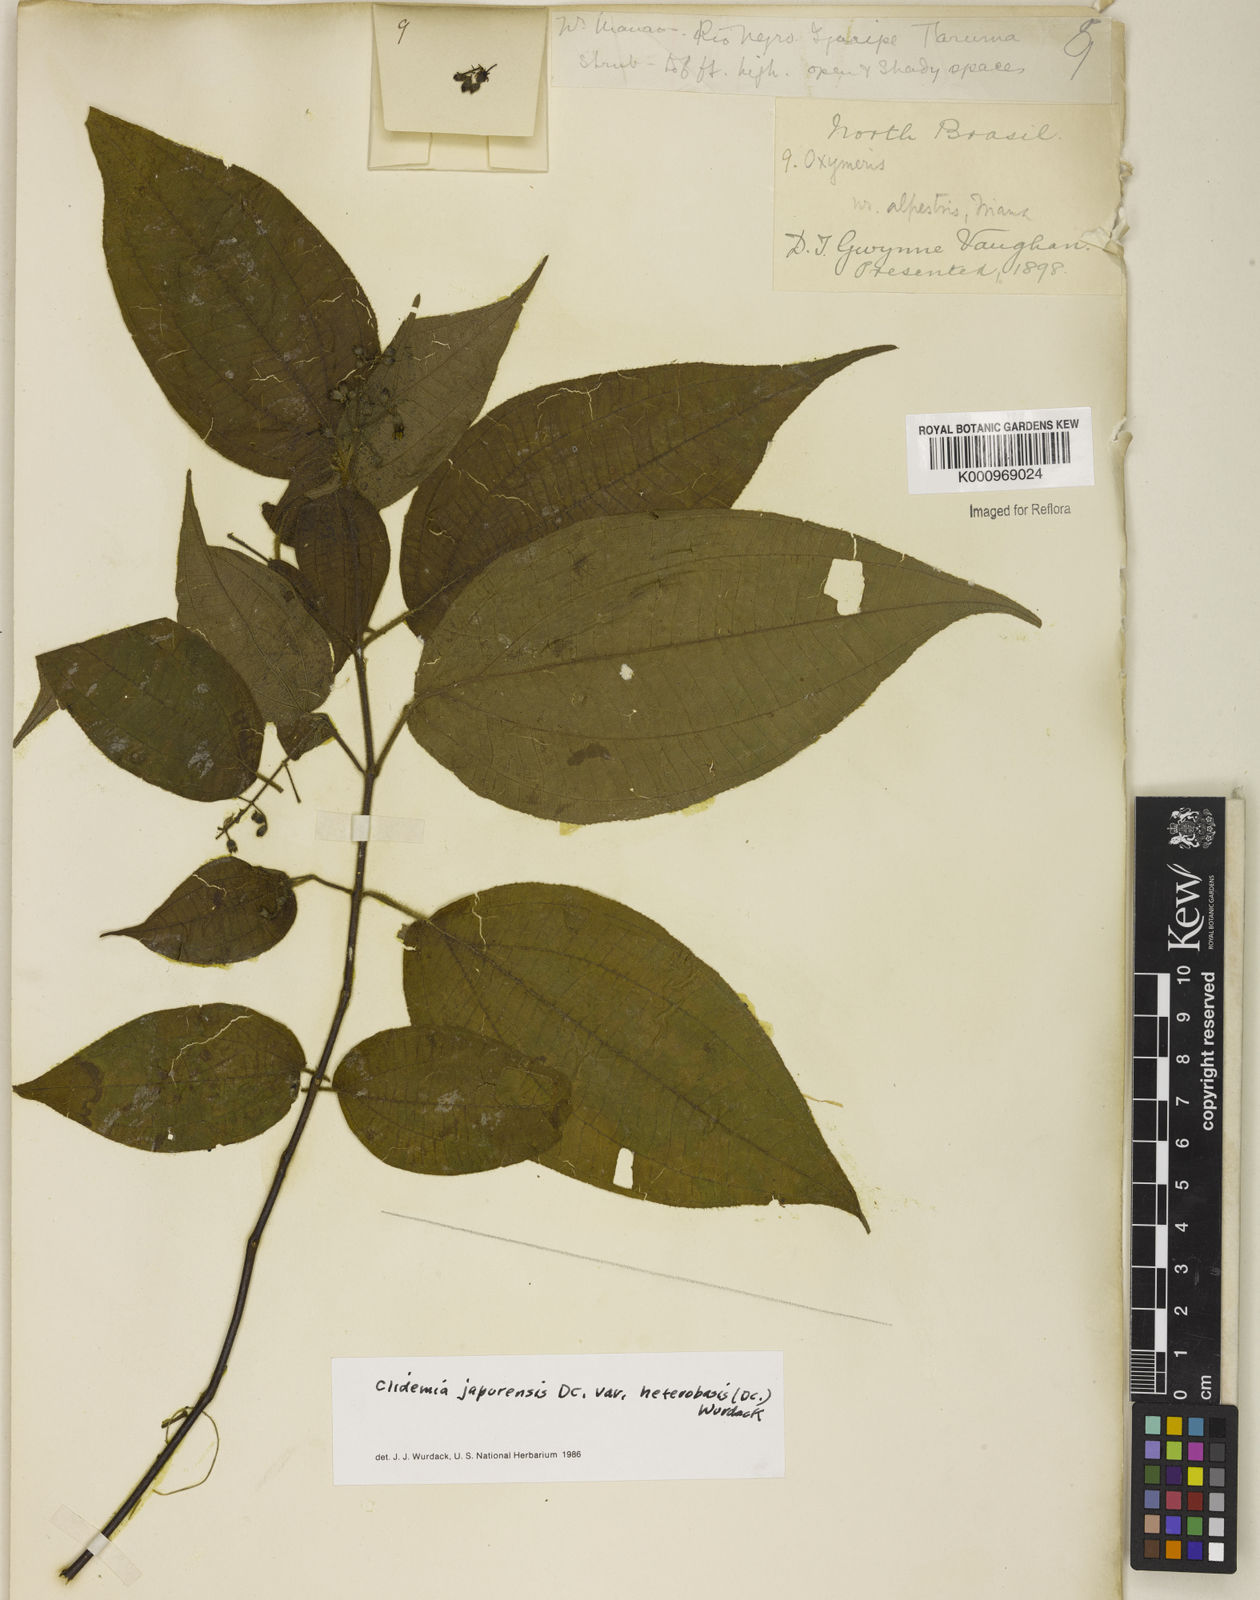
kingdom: Plantae
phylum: Tracheophyta
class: Magnoliopsida
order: Myrtales
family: Melastomataceae
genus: Miconia
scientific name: Miconia heteroclita
